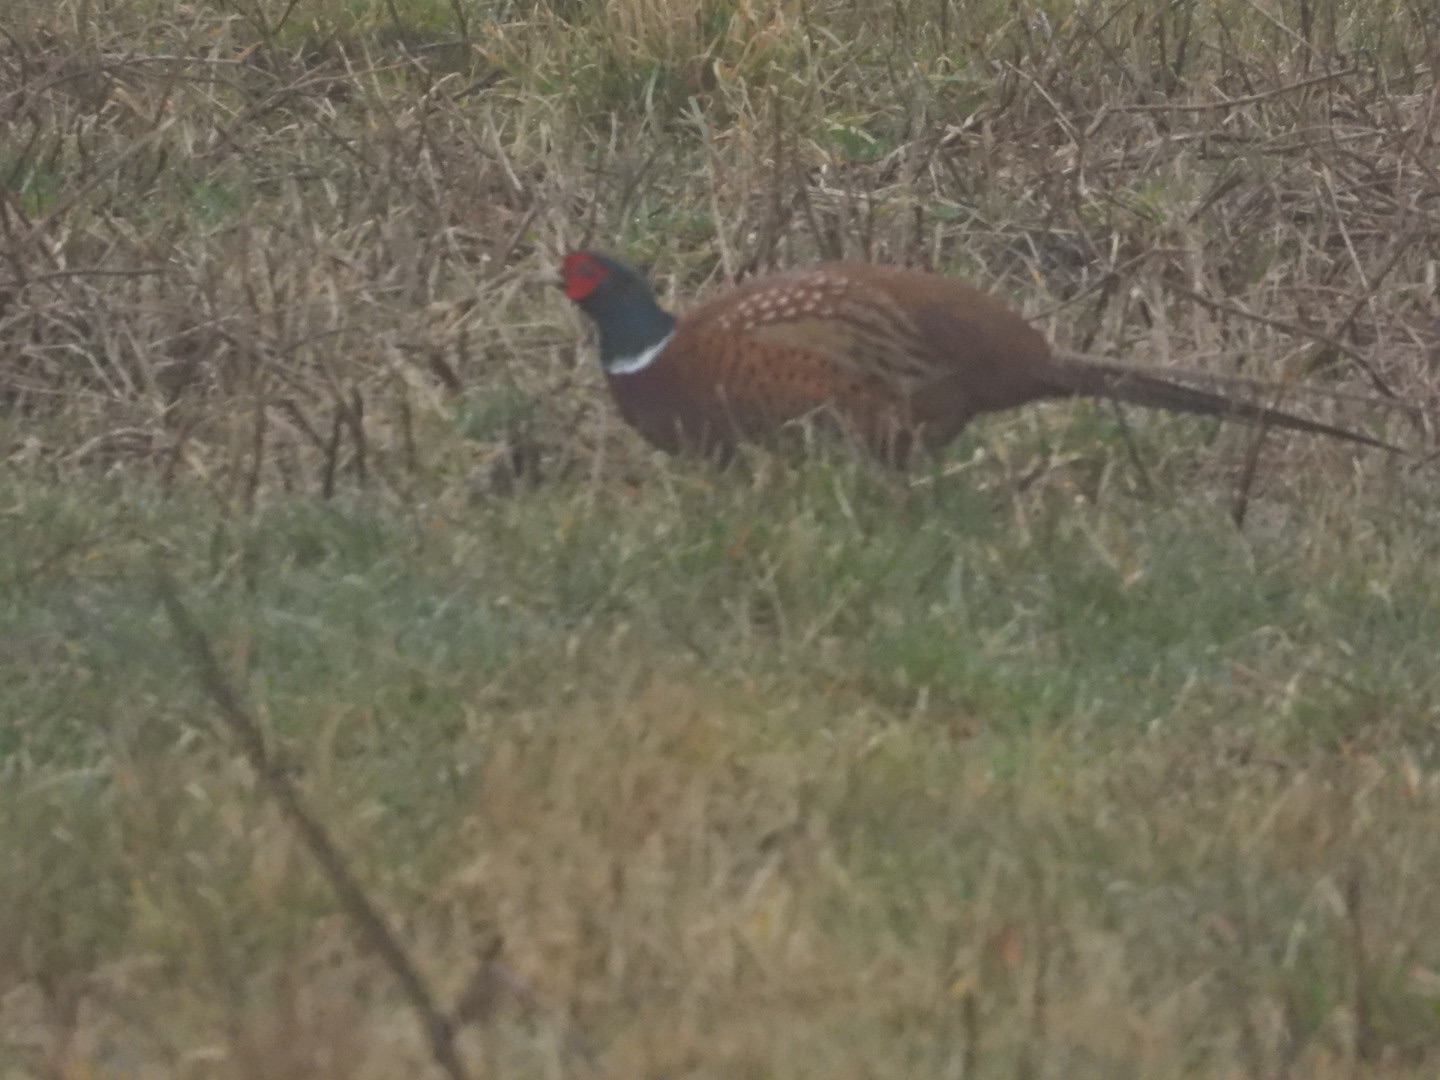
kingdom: Animalia
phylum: Chordata
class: Aves
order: Galliformes
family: Phasianidae
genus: Phasianus
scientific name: Phasianus colchicus
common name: Fasan
